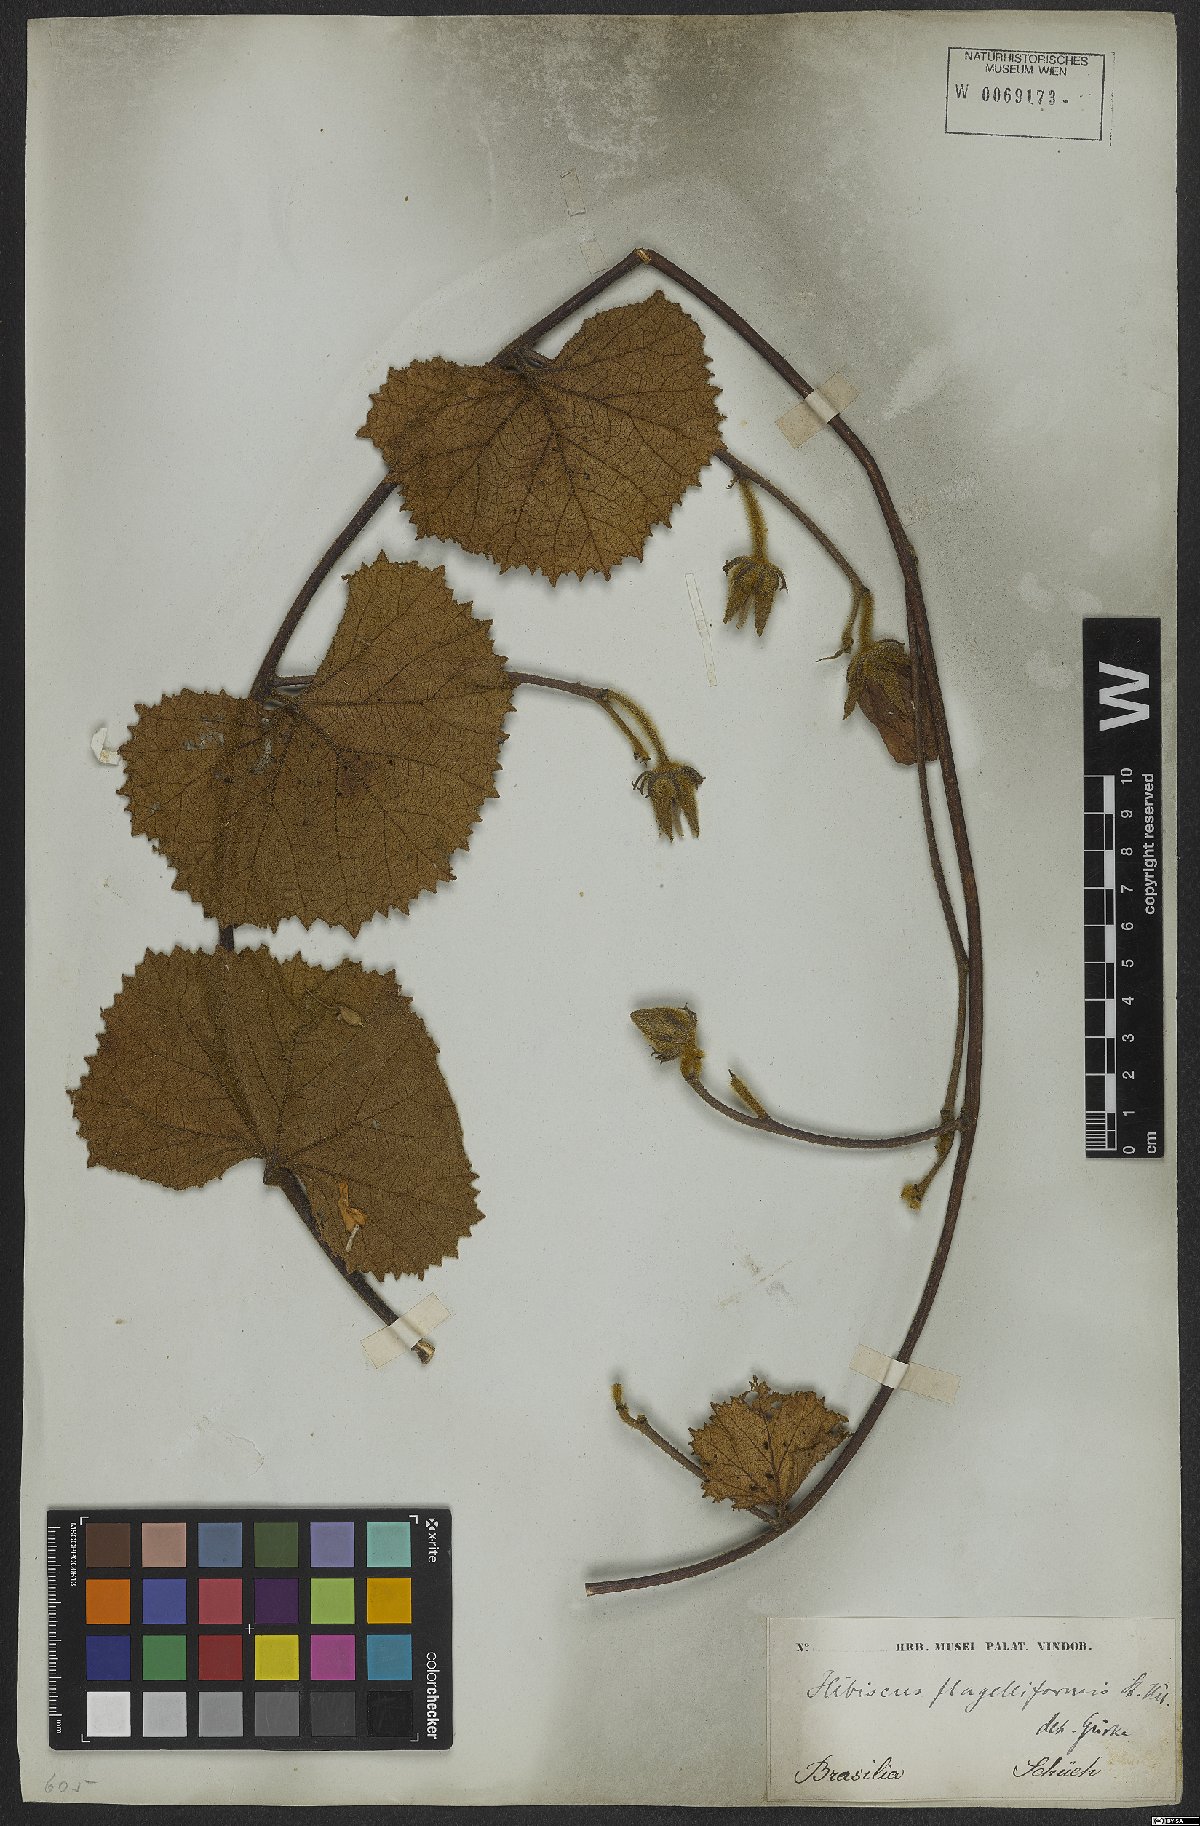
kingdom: Plantae
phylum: Tracheophyta
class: Magnoliopsida
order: Malvales
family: Malvaceae
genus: Hibiscus
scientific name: Hibiscus flagelliformis
